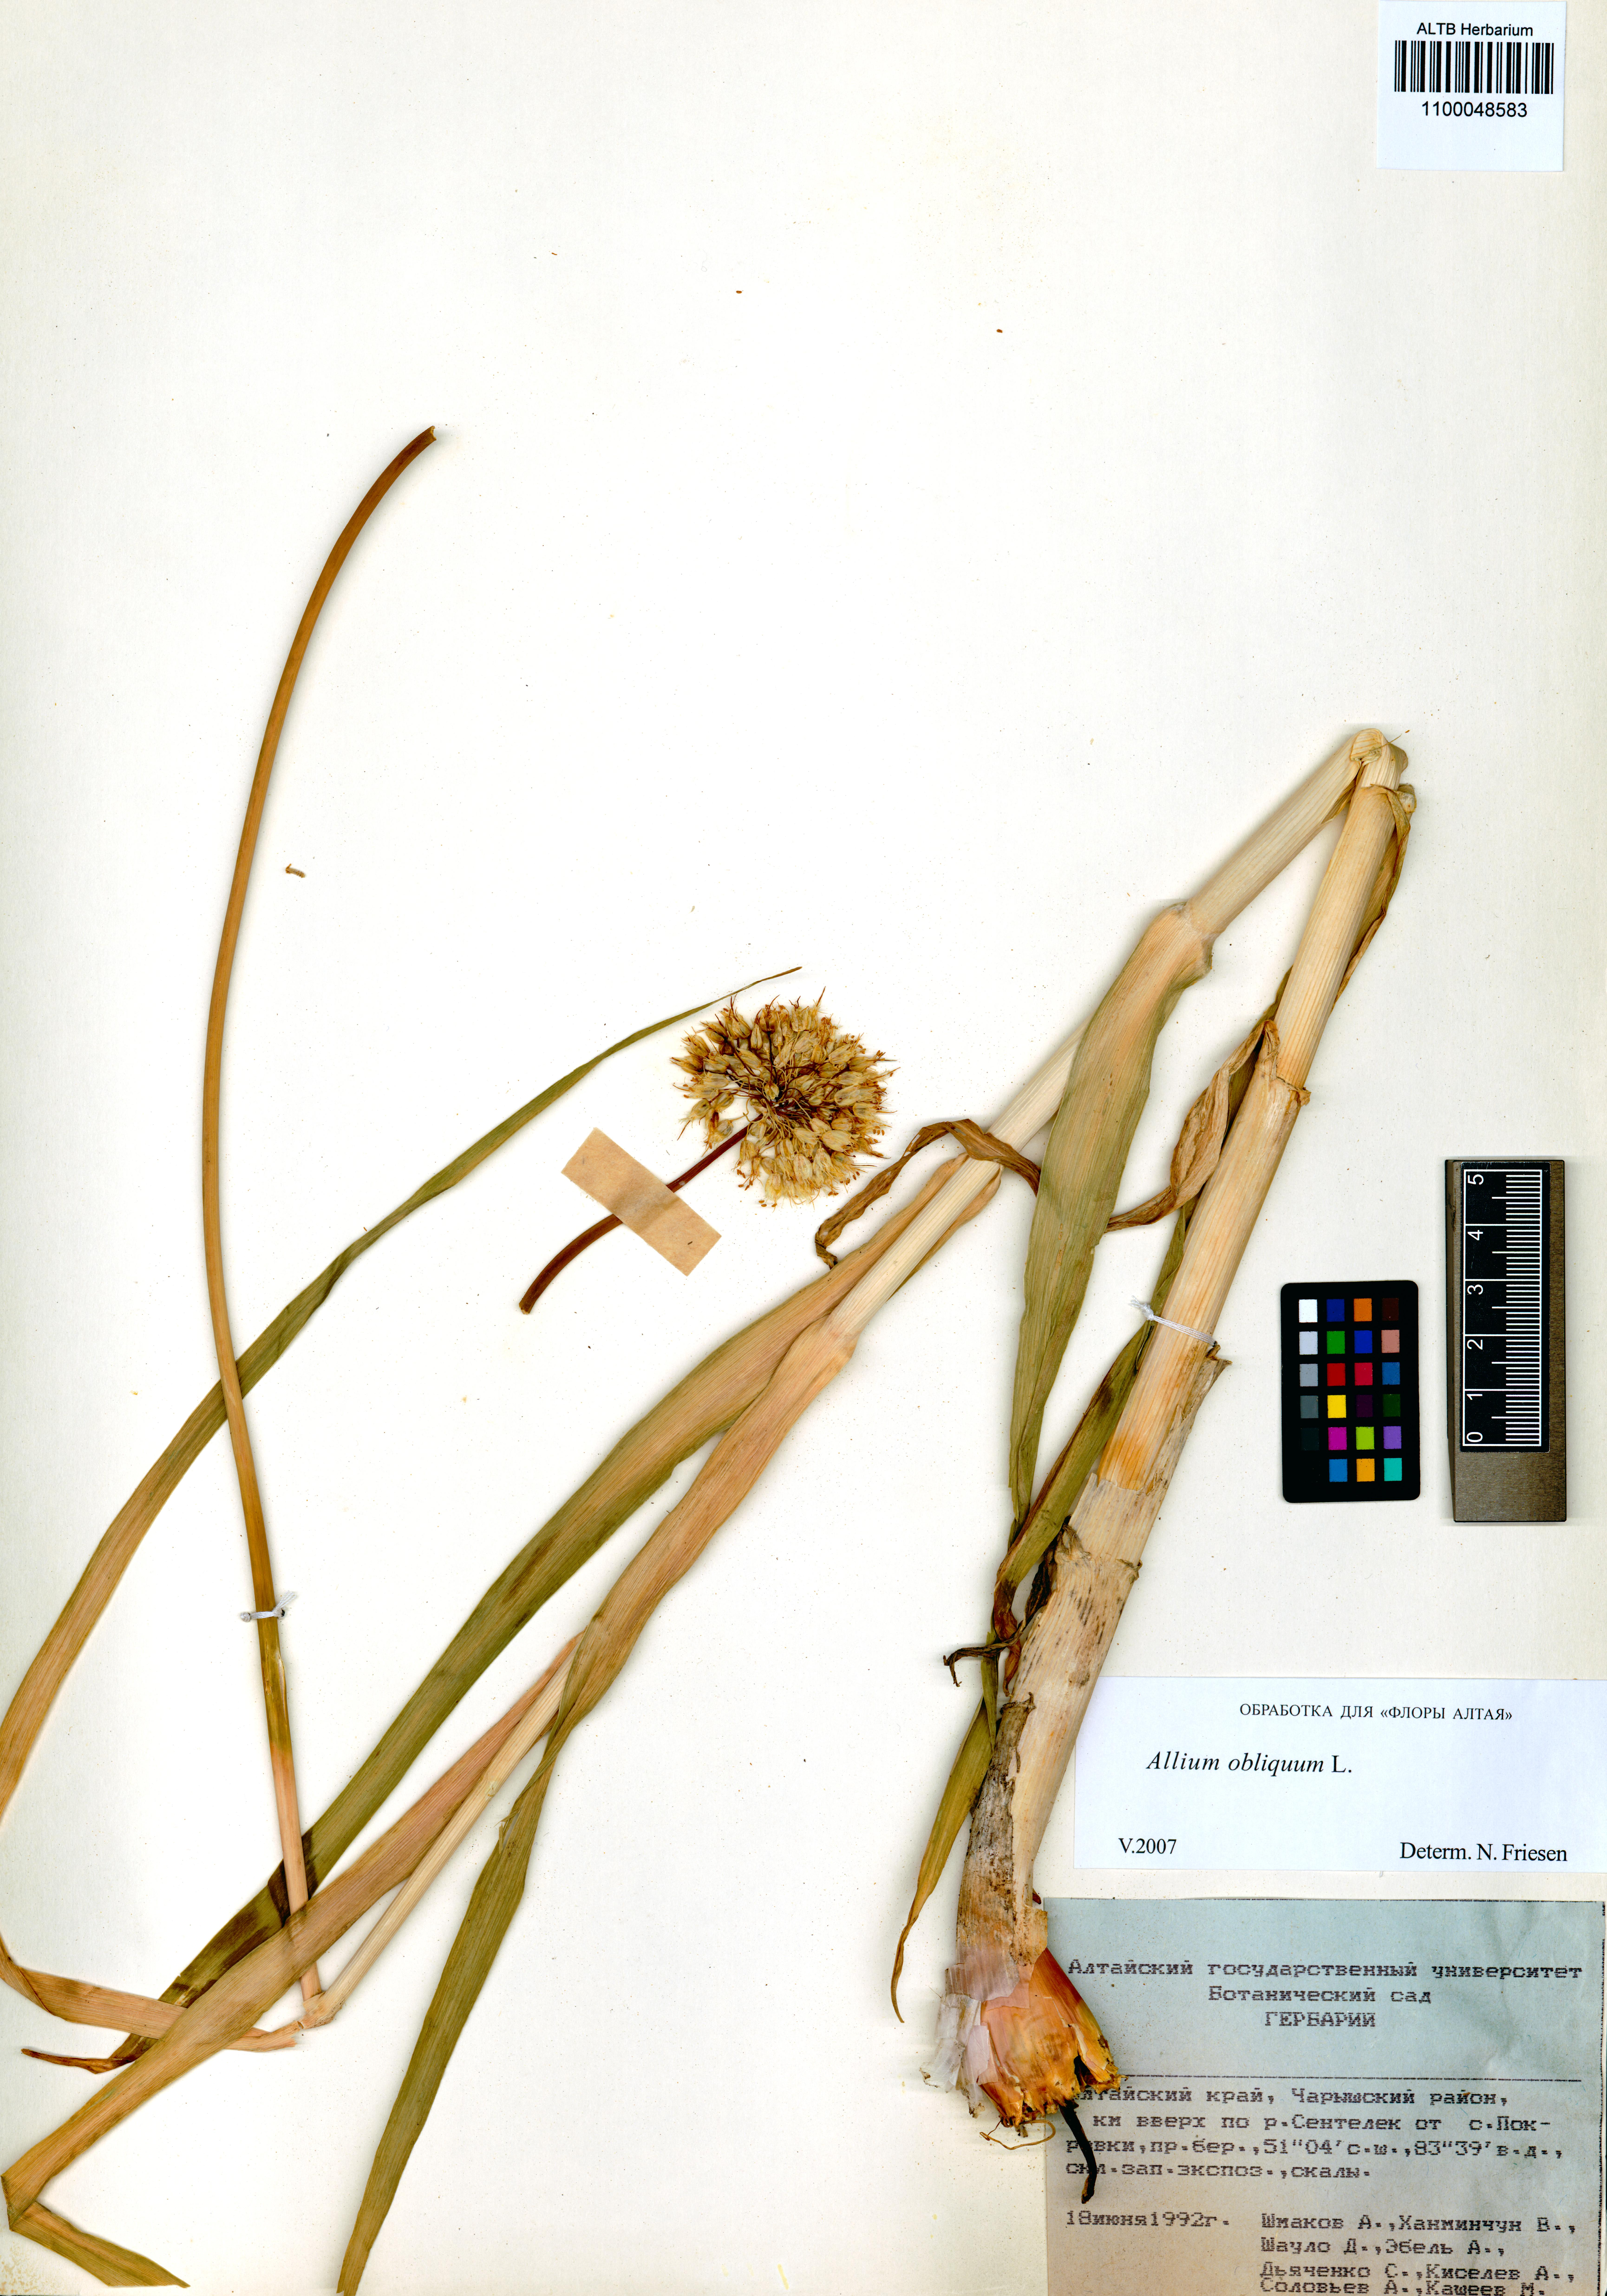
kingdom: Plantae
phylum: Tracheophyta
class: Liliopsida
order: Asparagales
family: Amaryllidaceae
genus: Allium
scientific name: Allium obliquum
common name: Oblique onion
